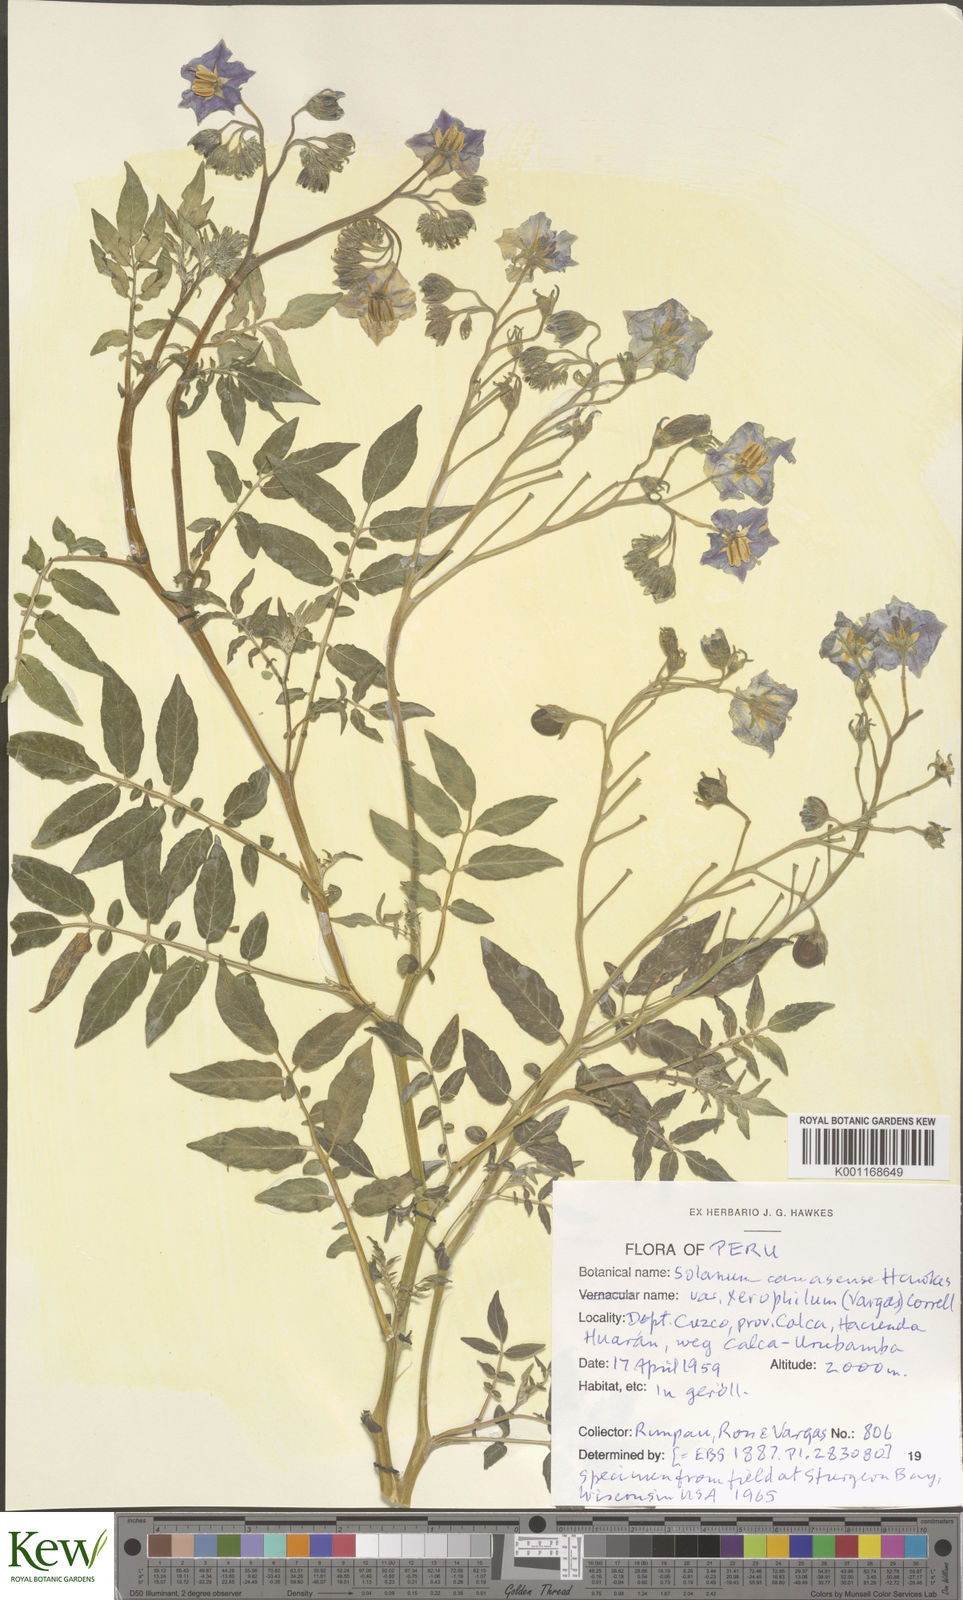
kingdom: Plantae
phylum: Tracheophyta
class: Magnoliopsida
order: Solanales
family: Solanaceae
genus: Solanum
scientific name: Solanum candolleanum
